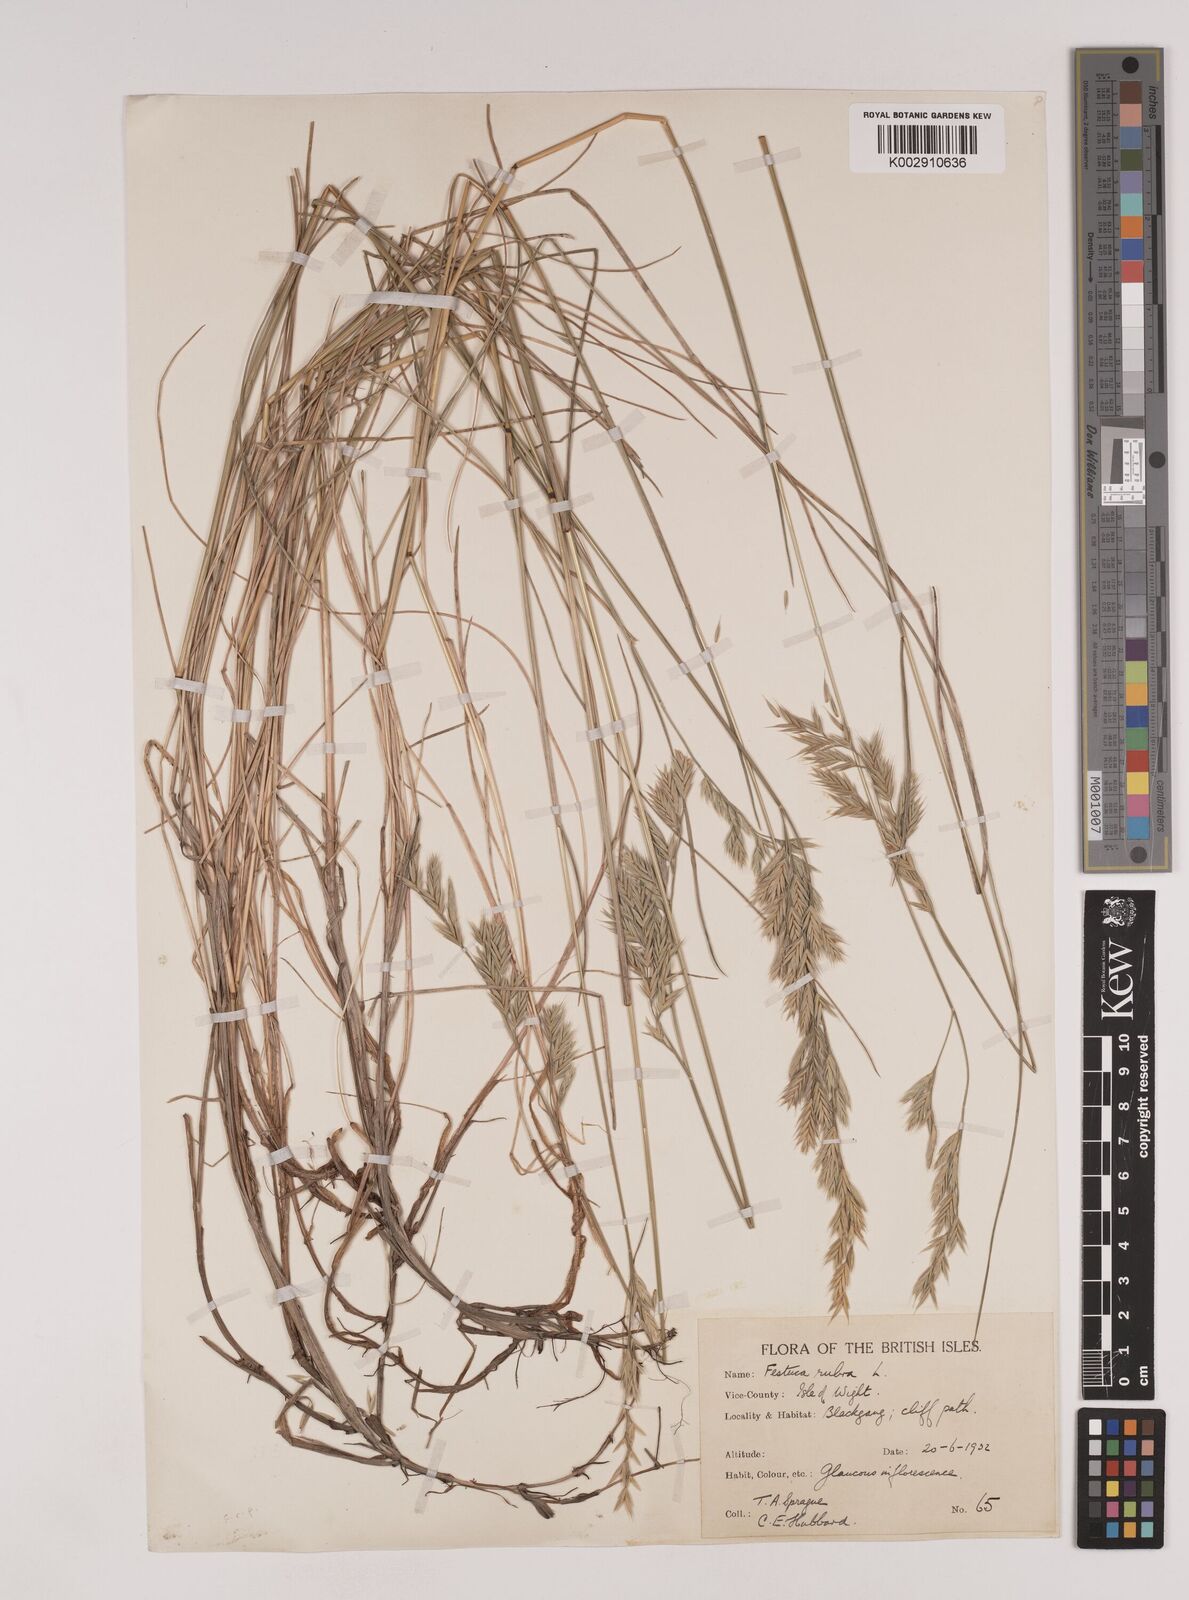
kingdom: Plantae
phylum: Tracheophyta
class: Liliopsida
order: Poales
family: Poaceae
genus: Festuca
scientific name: Festuca rubra
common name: Red fescue
